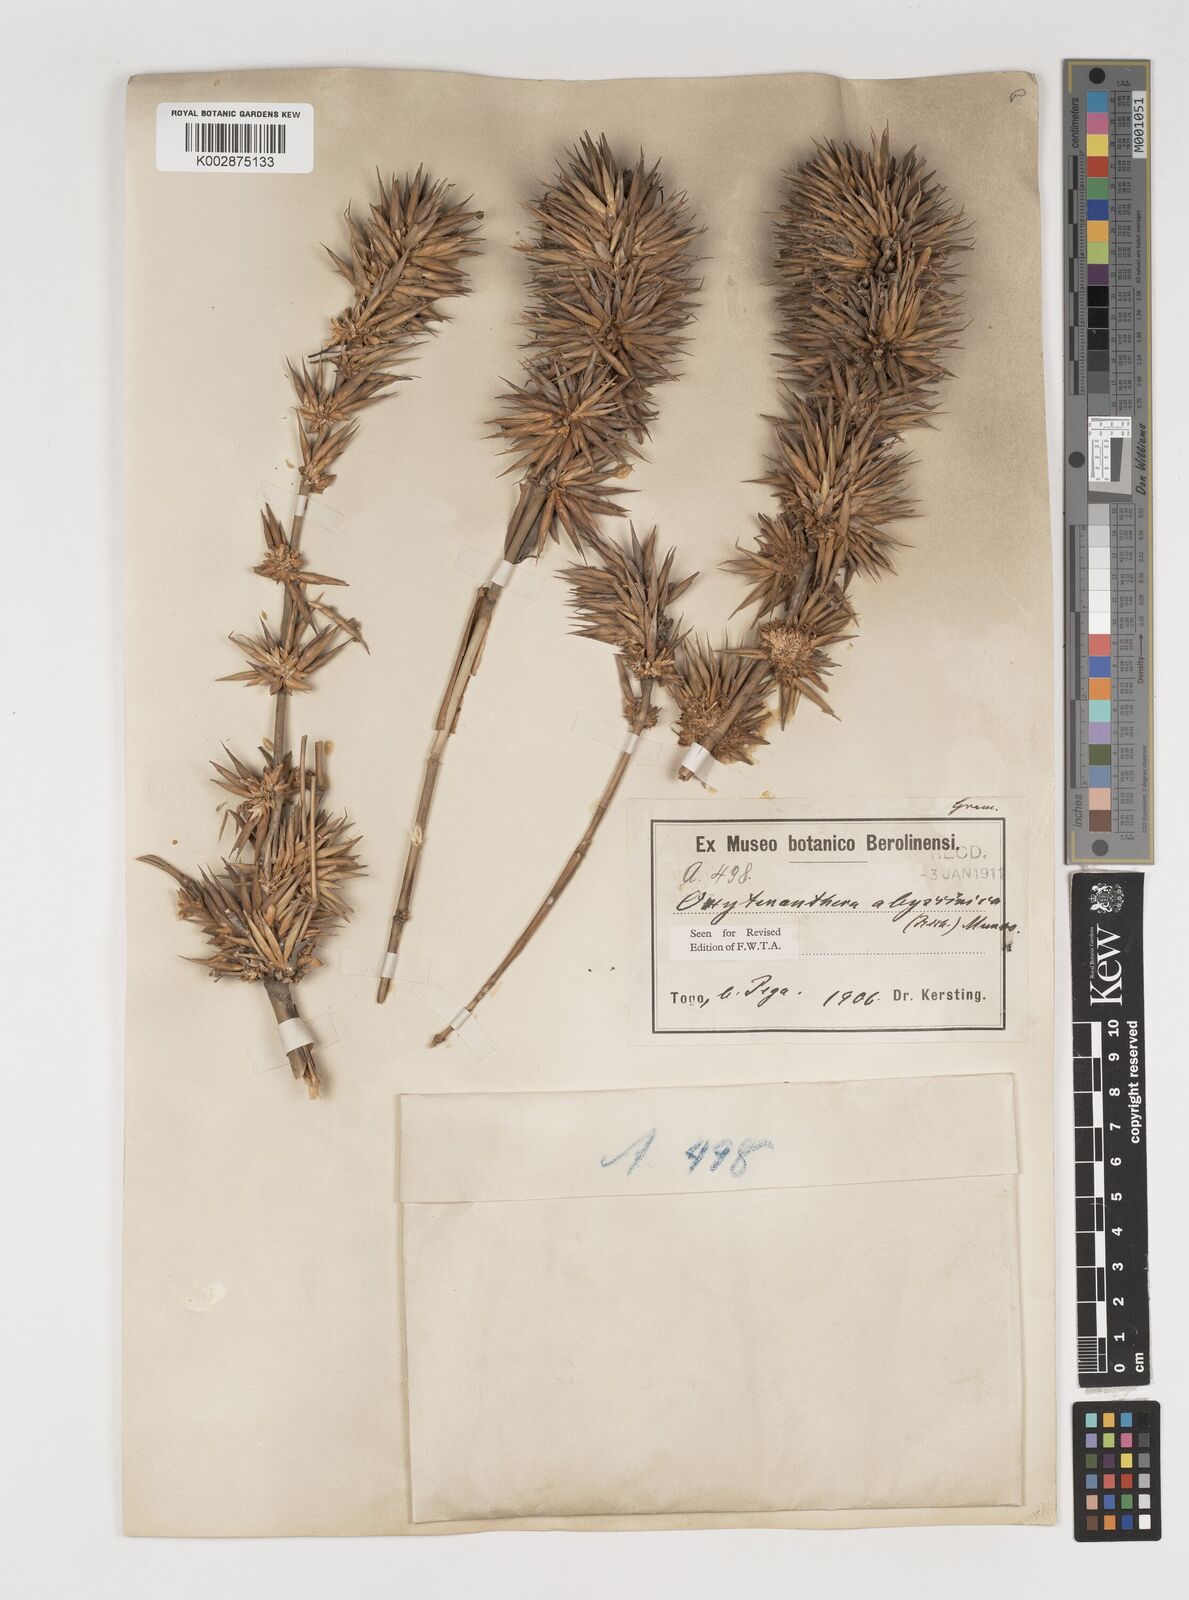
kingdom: Plantae
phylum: Tracheophyta
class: Liliopsida
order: Poales
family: Poaceae
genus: Oxytenanthera
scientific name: Oxytenanthera abyssinica
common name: Wine bamboo
